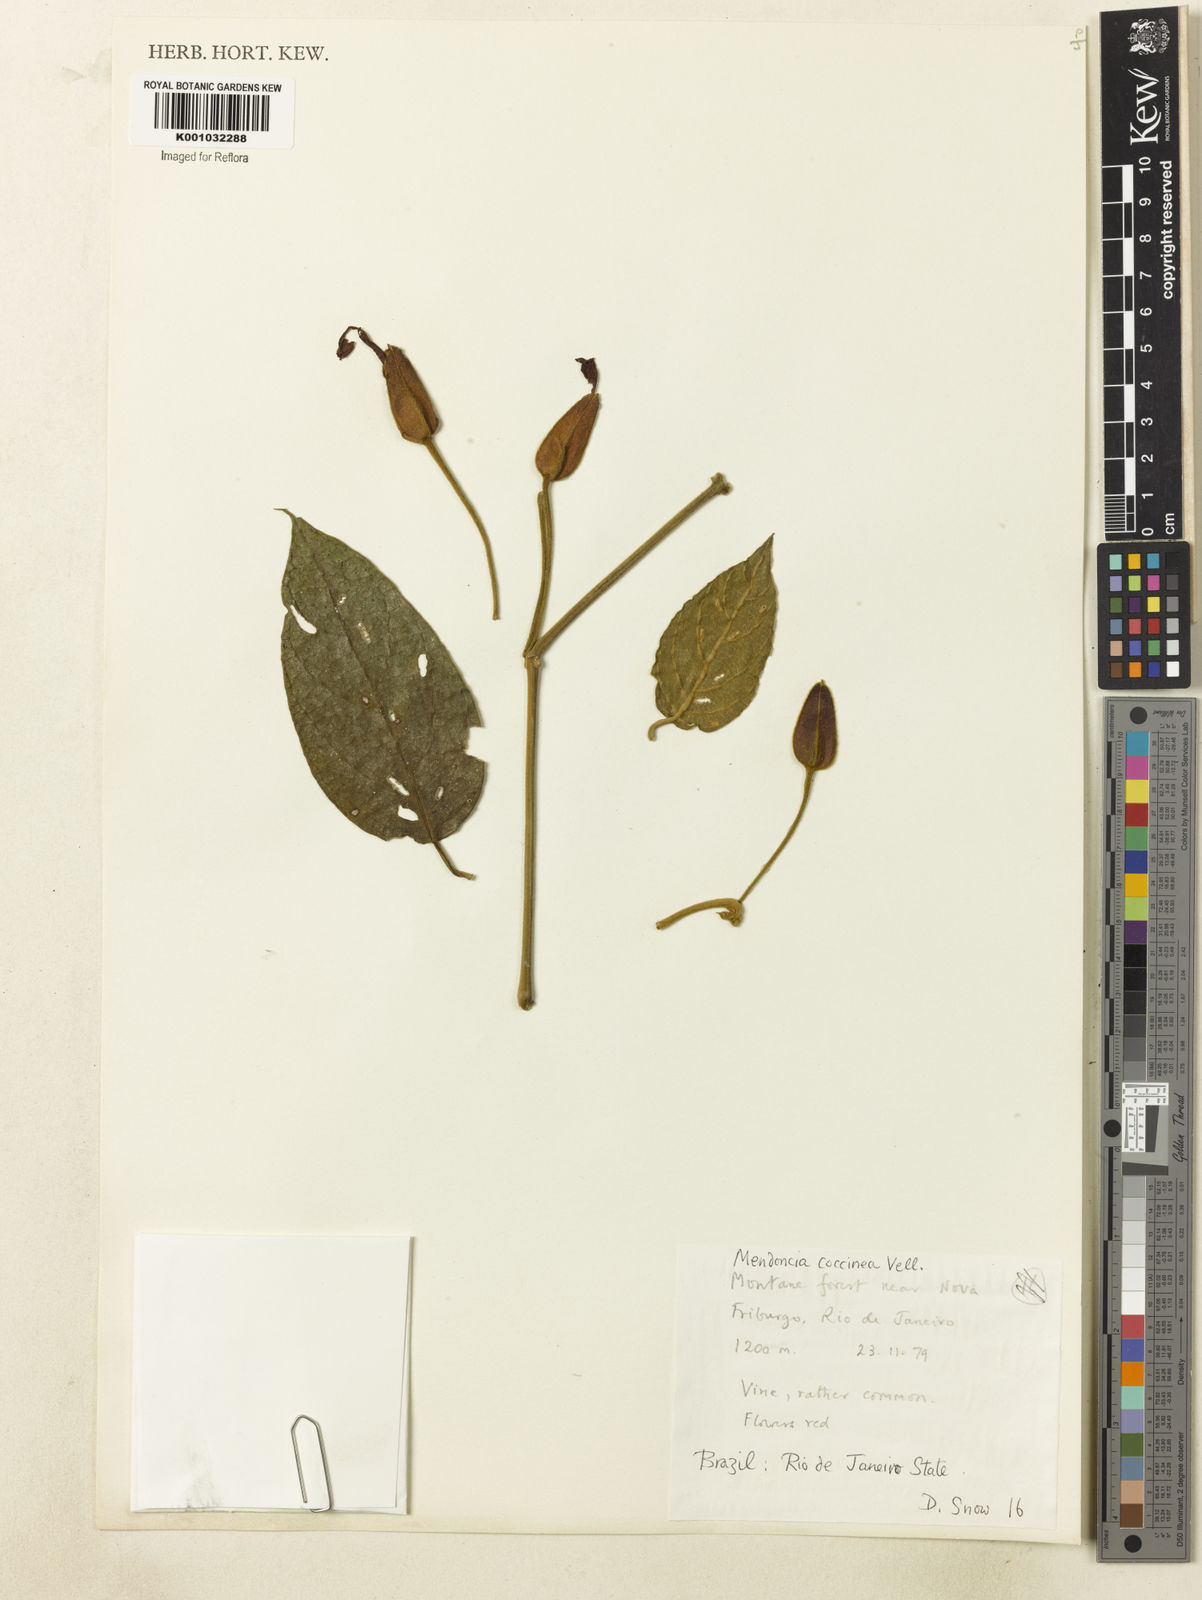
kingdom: Plantae
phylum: Tracheophyta
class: Magnoliopsida
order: Lamiales
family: Acanthaceae
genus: Mendoncia
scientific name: Mendoncia coccinea
